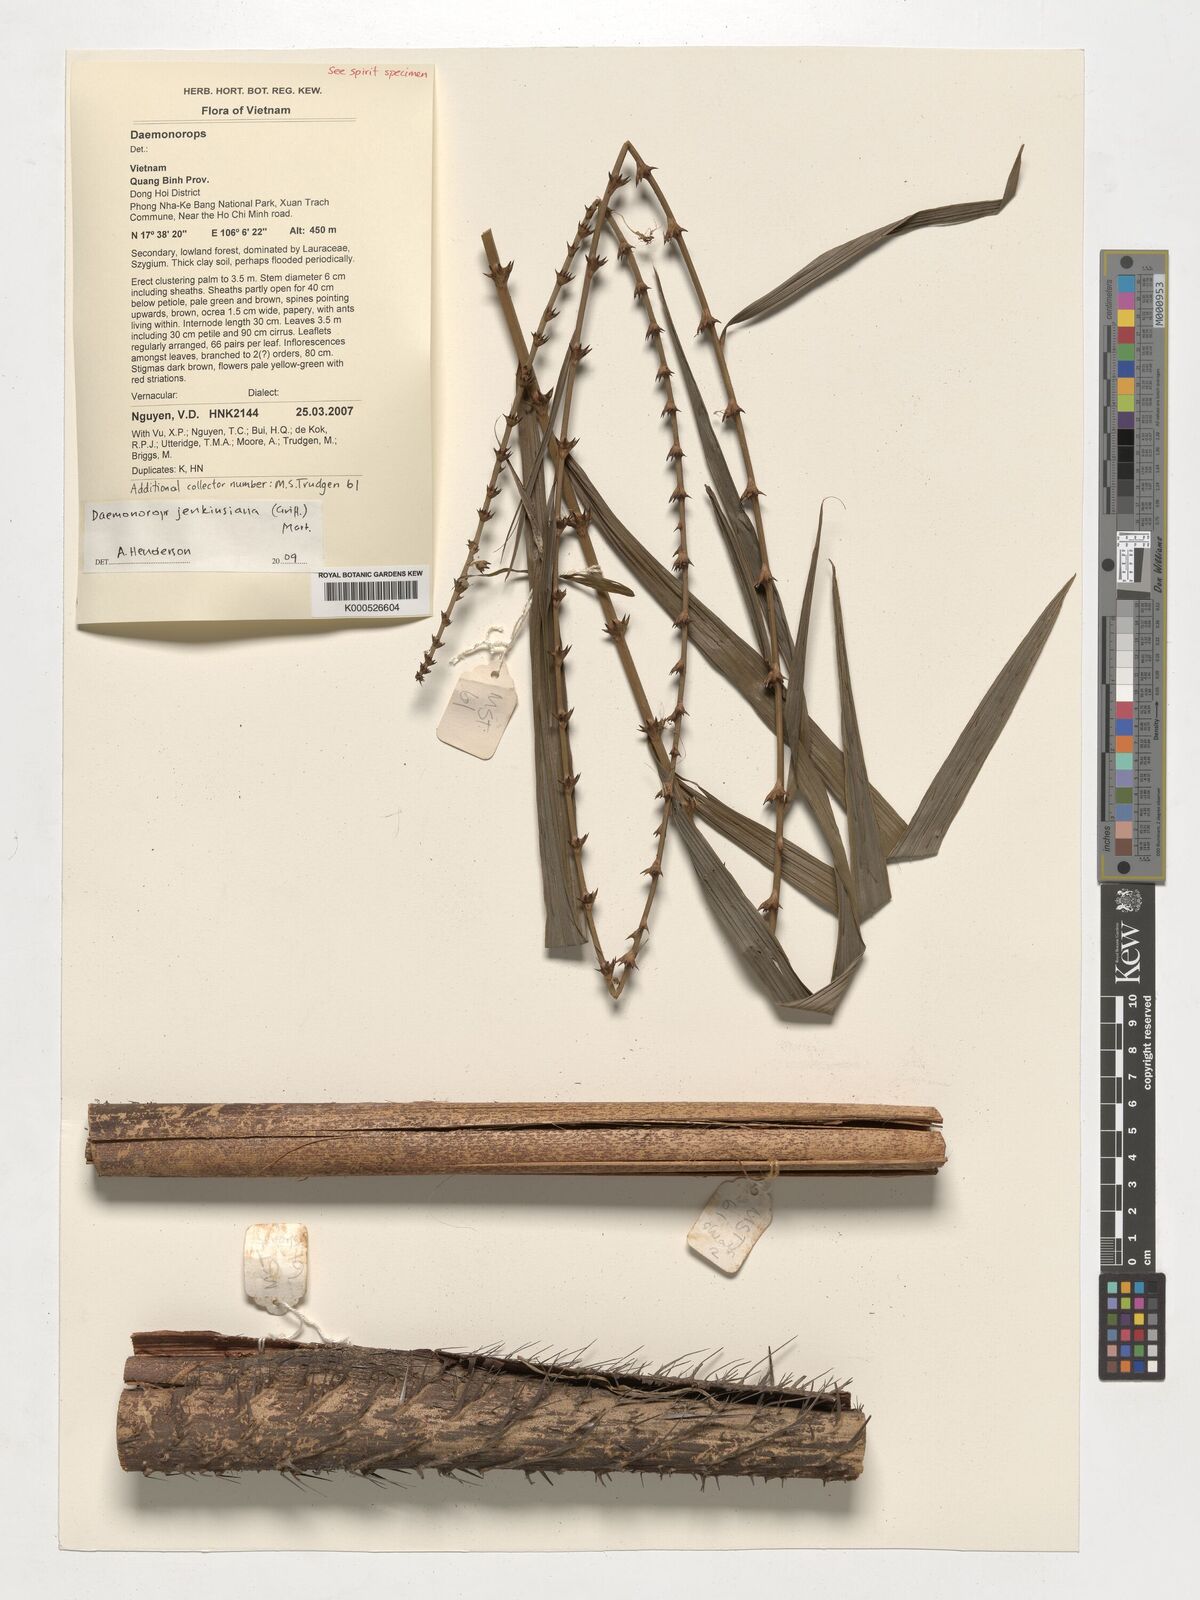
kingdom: Plantae
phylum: Tracheophyta
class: Liliopsida
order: Arecales
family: Arecaceae
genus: Calamus
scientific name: Calamus melanochaetes
